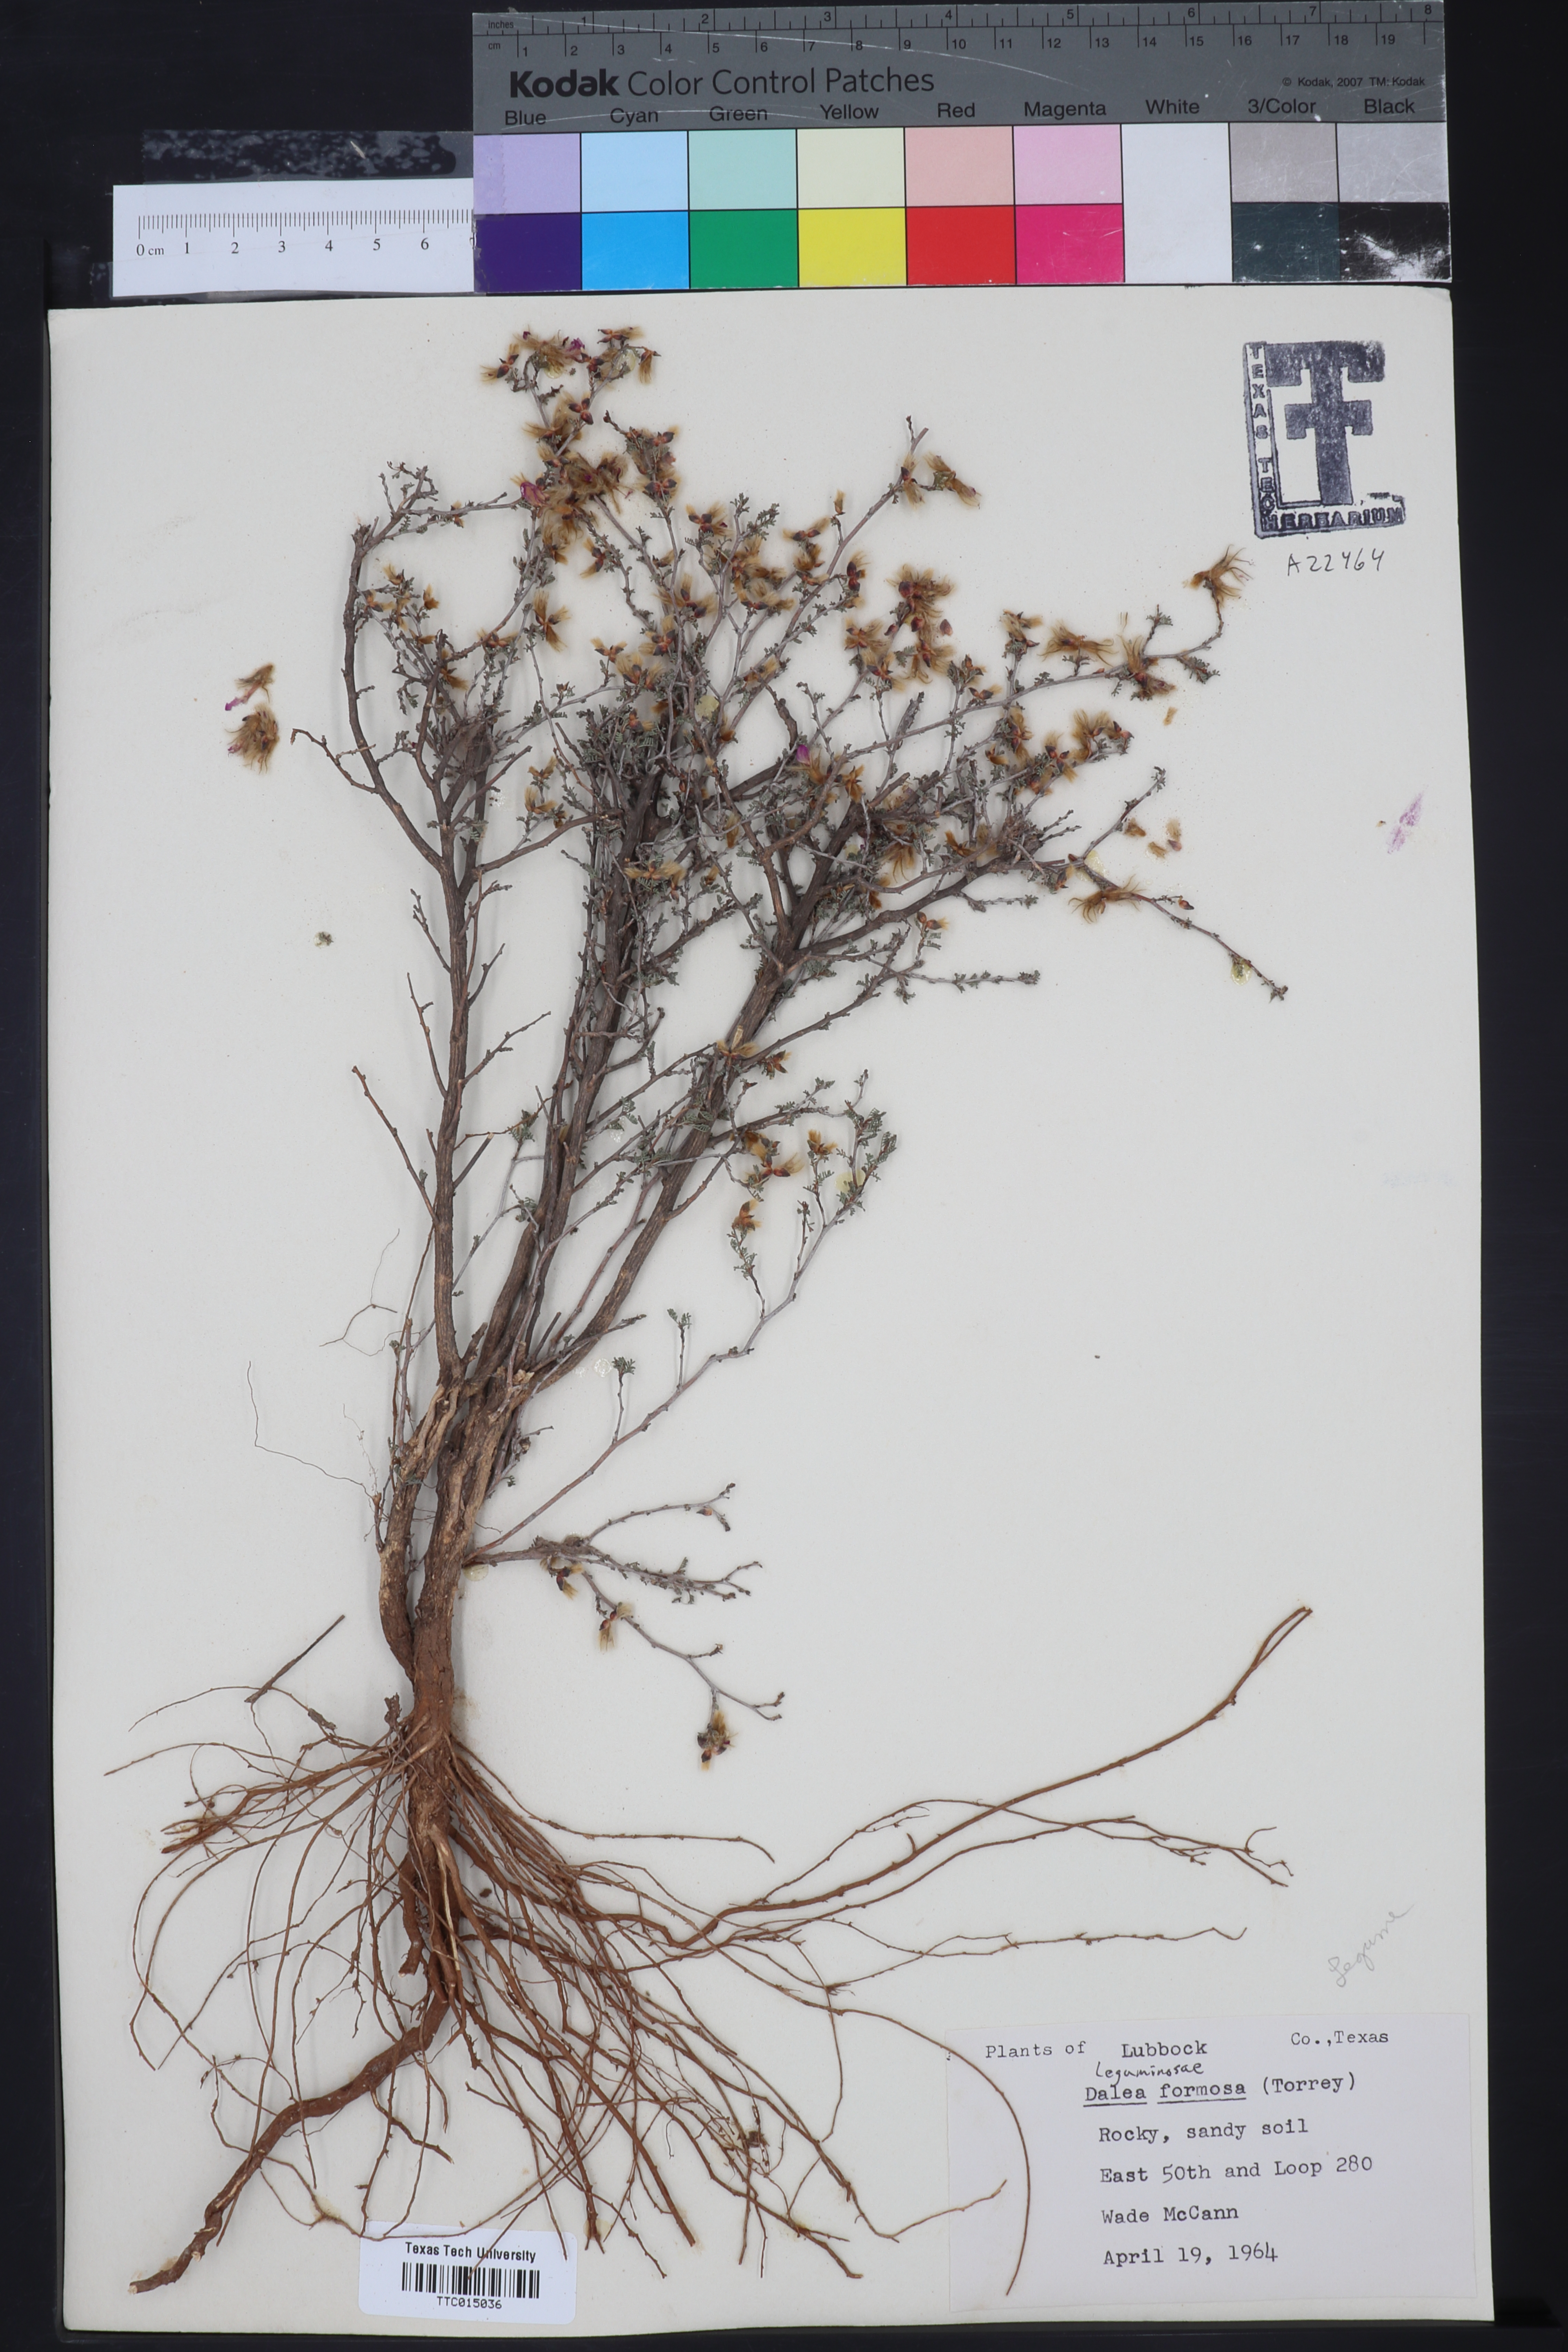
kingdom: Plantae
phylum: Tracheophyta
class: Magnoliopsida
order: Fabales
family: Fabaceae
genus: Dalea
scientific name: Dalea formosa
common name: Feather-plume dalea
